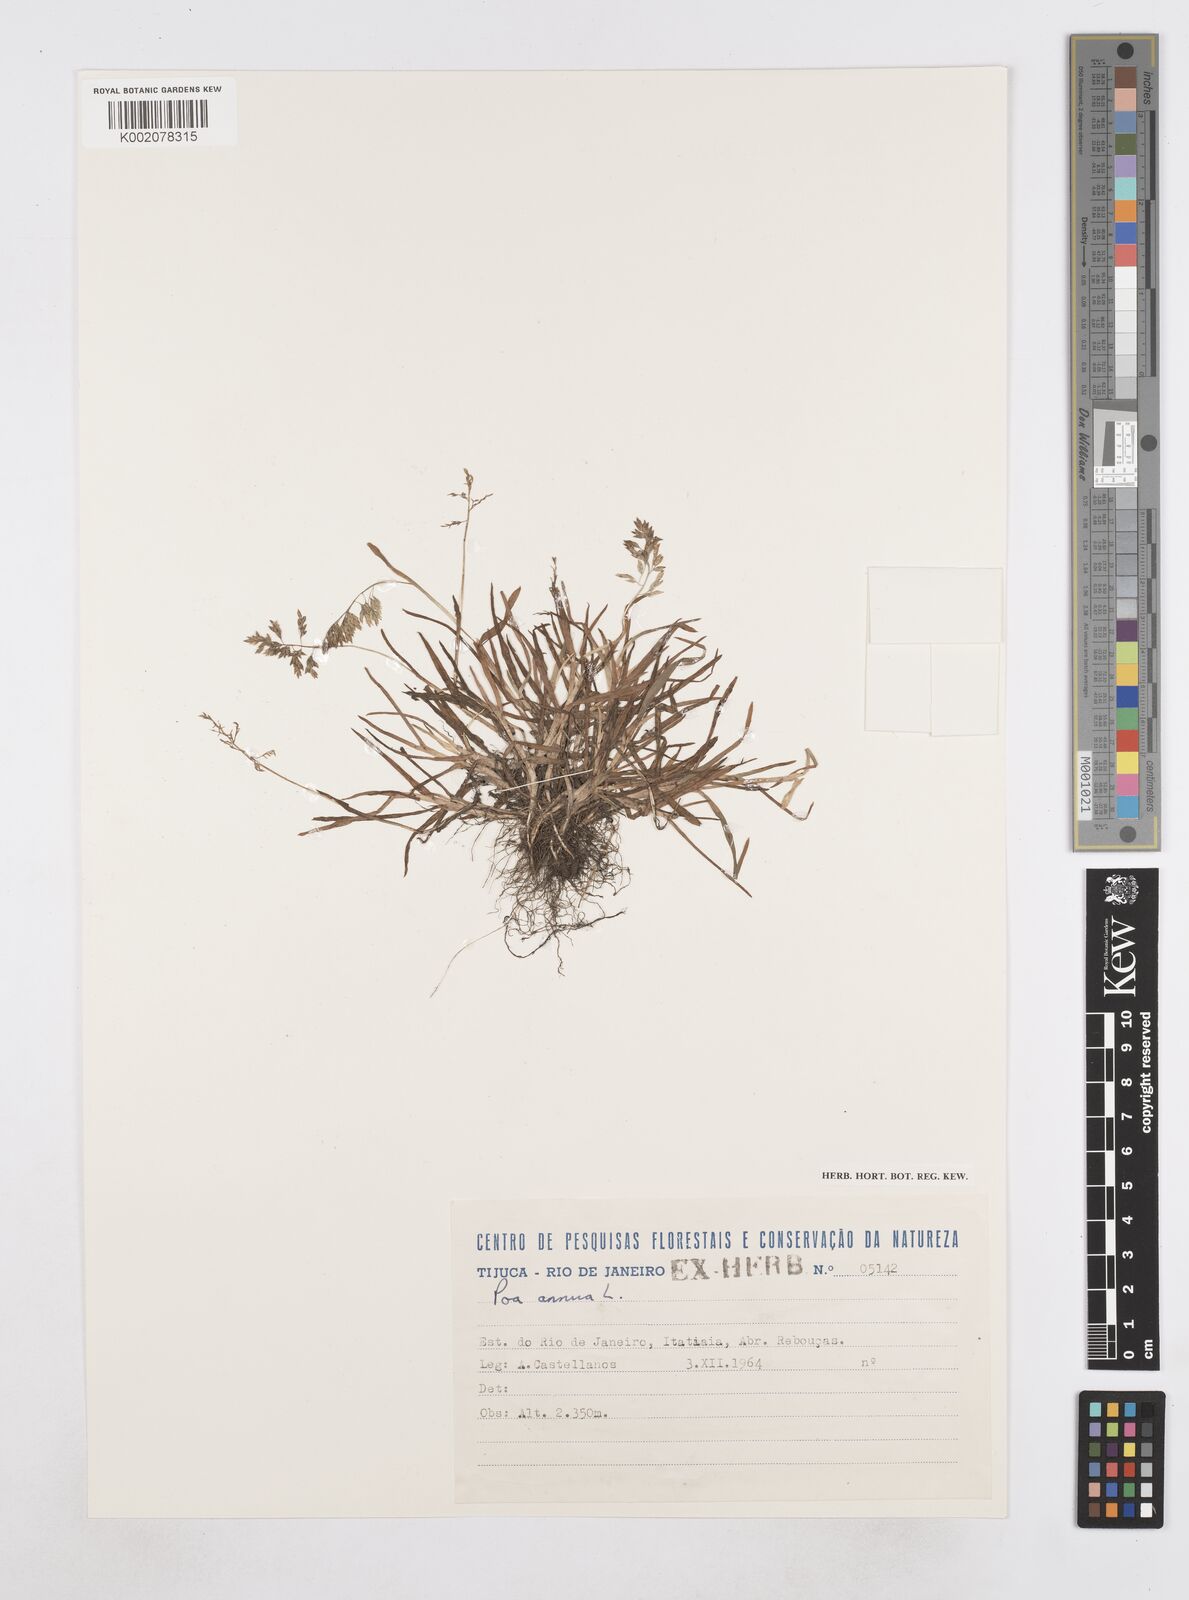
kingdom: Plantae
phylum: Tracheophyta
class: Liliopsida
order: Poales
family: Poaceae
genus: Poa
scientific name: Poa annua
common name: Annual bluegrass
